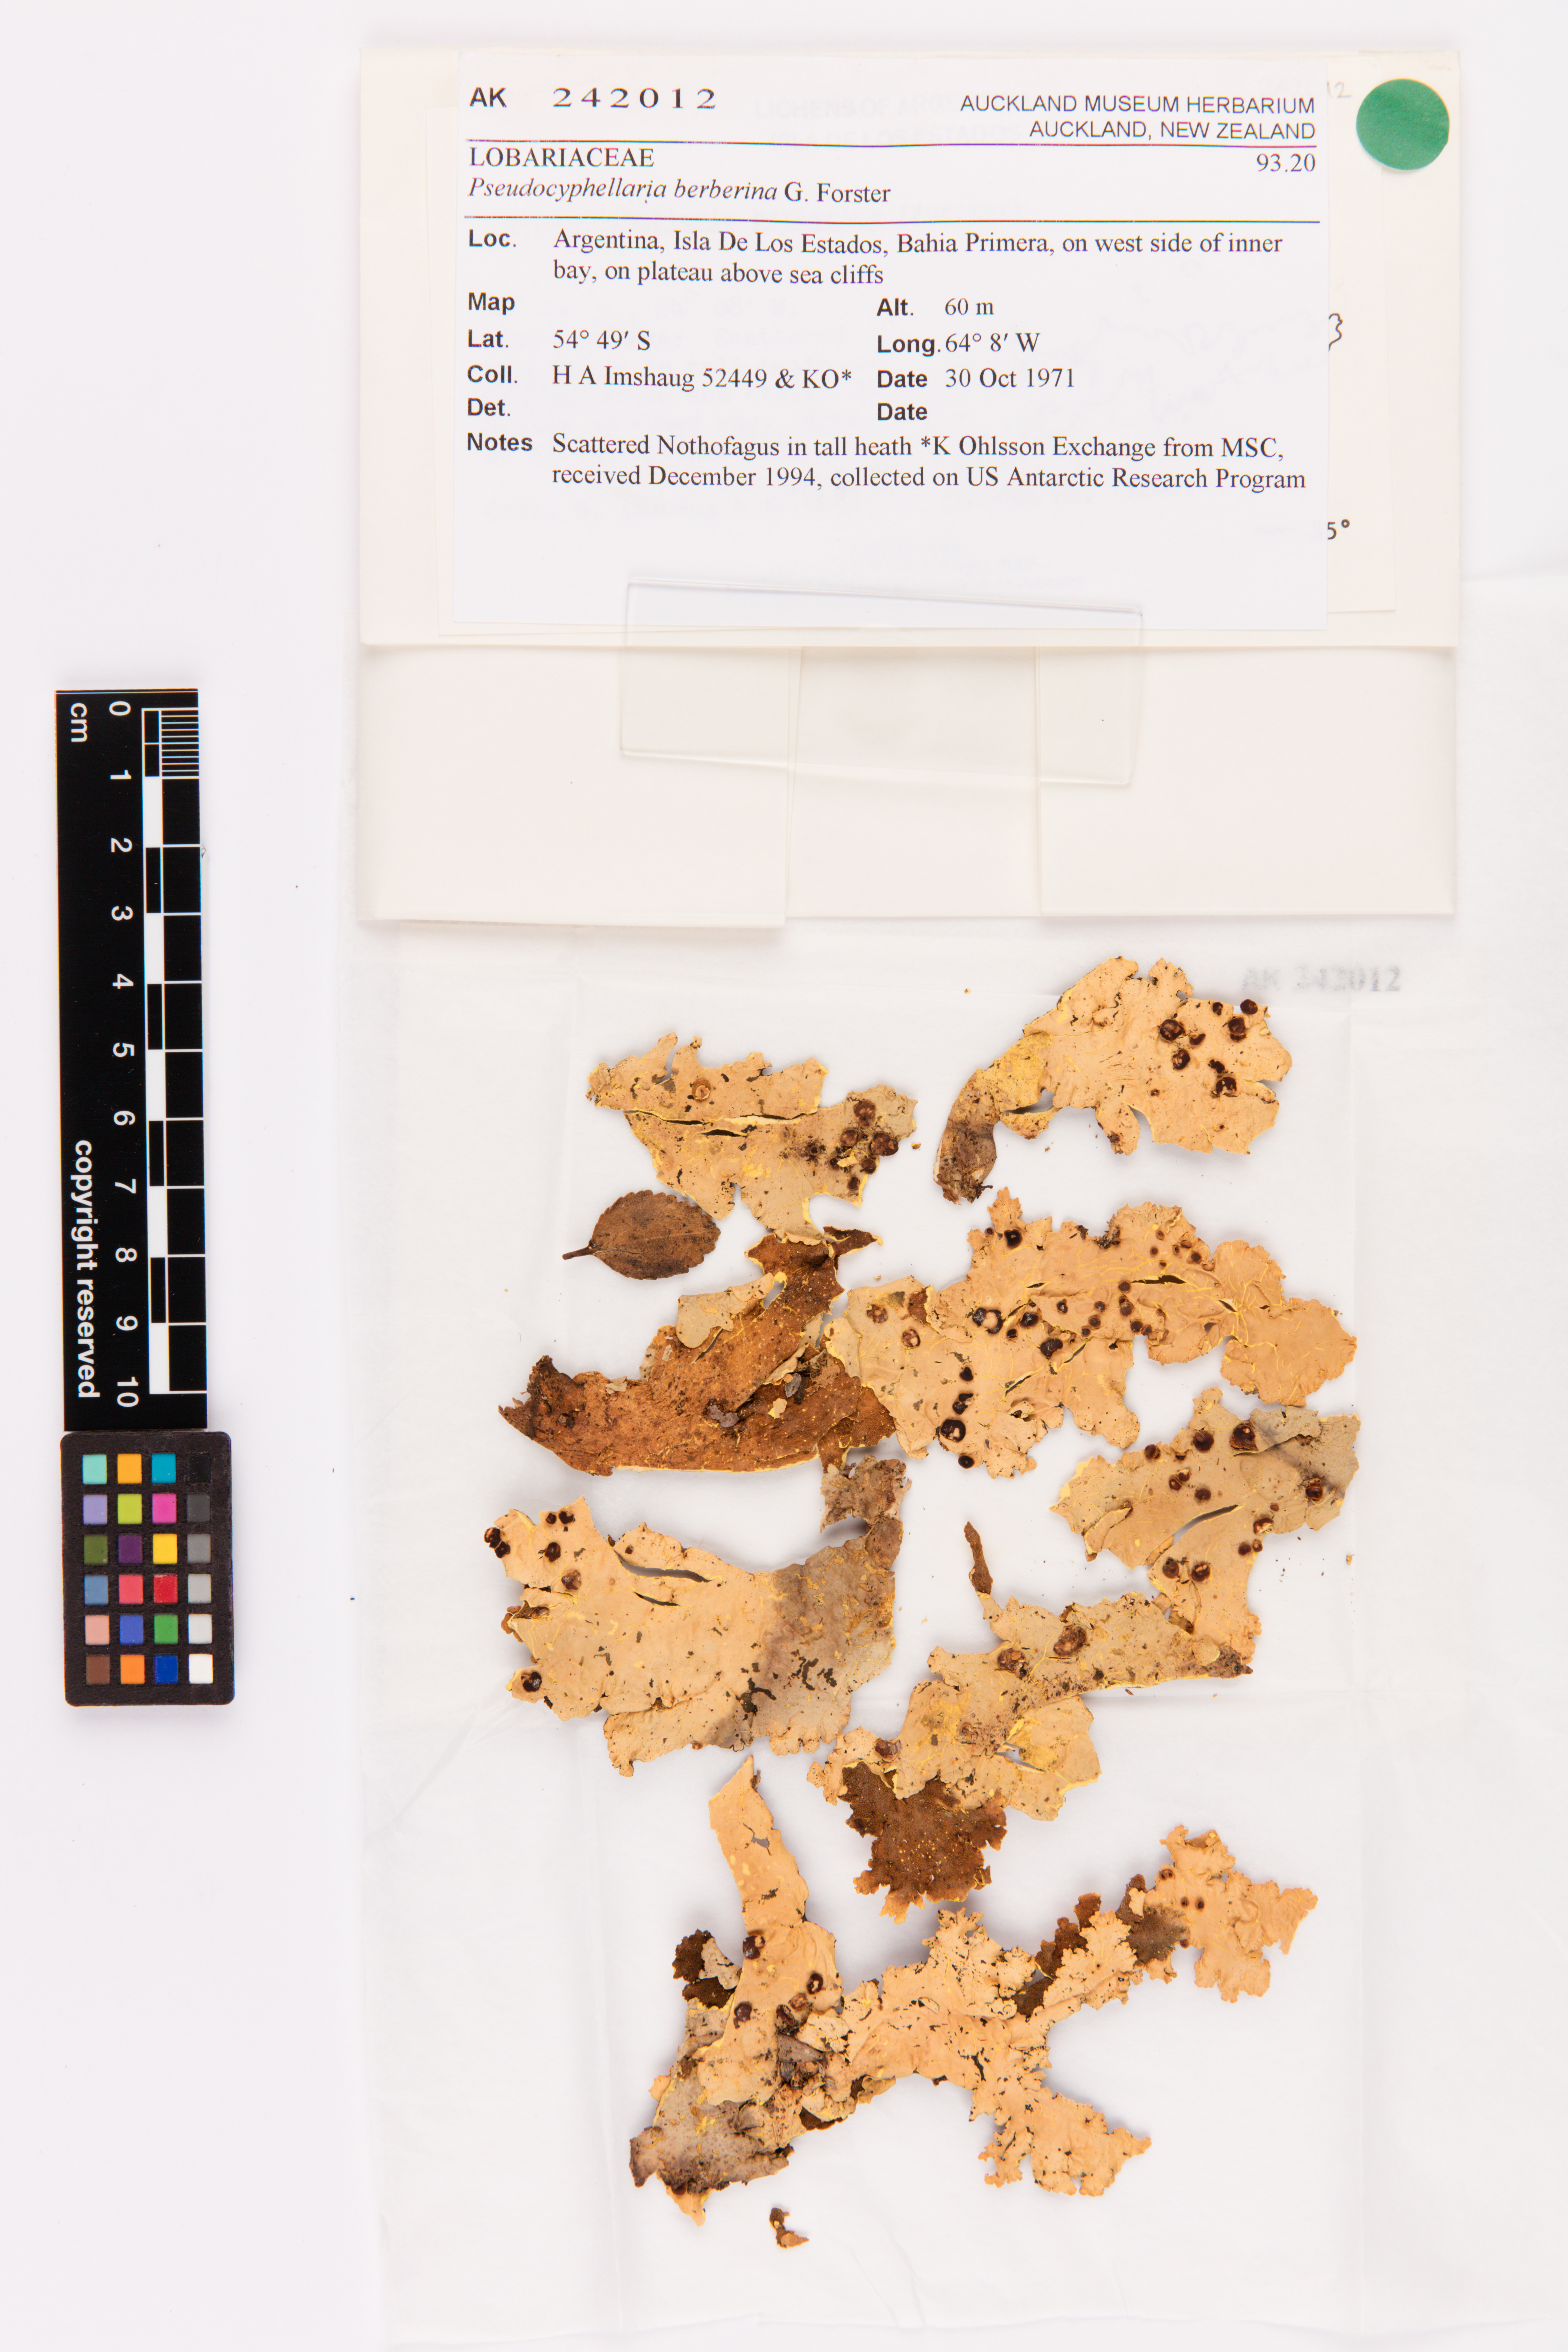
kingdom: Fungi
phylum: Ascomycota
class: Lecanoromycetes
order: Peltigerales
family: Lobariaceae
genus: Podostictina
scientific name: Podostictina berberina
